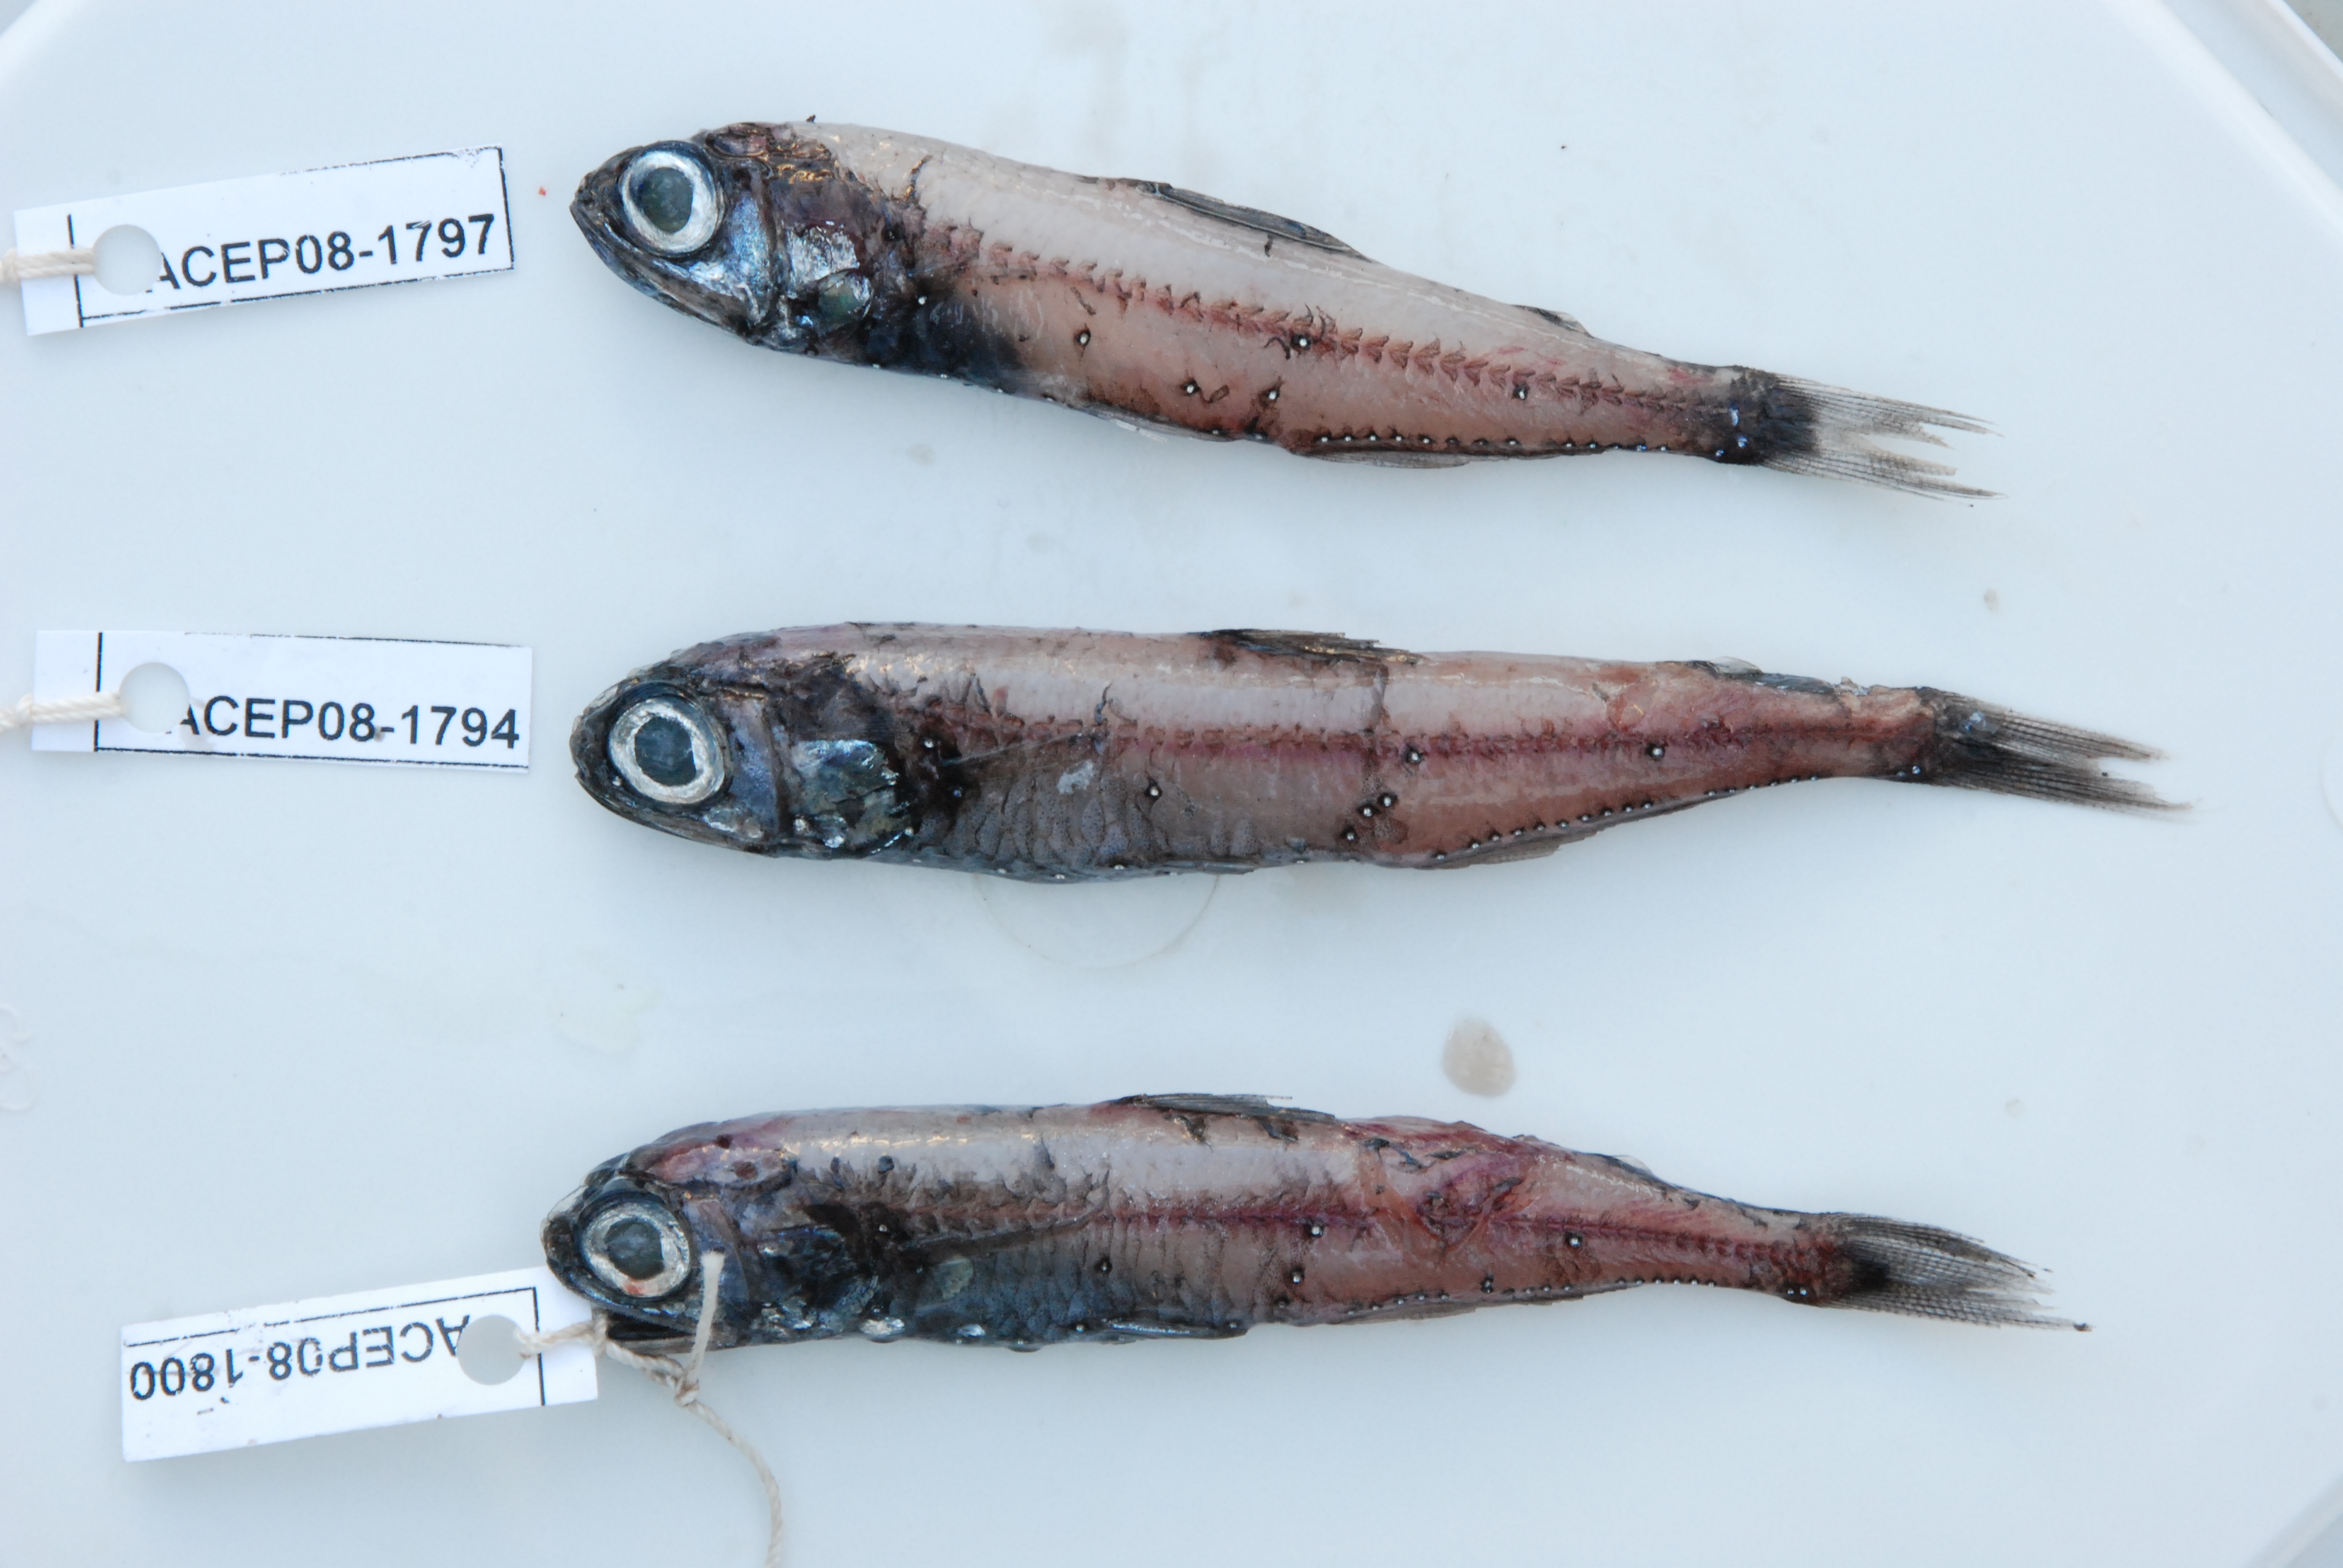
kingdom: Animalia
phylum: Chordata
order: Myctophiformes
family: Myctophidae
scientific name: Myctophidae
